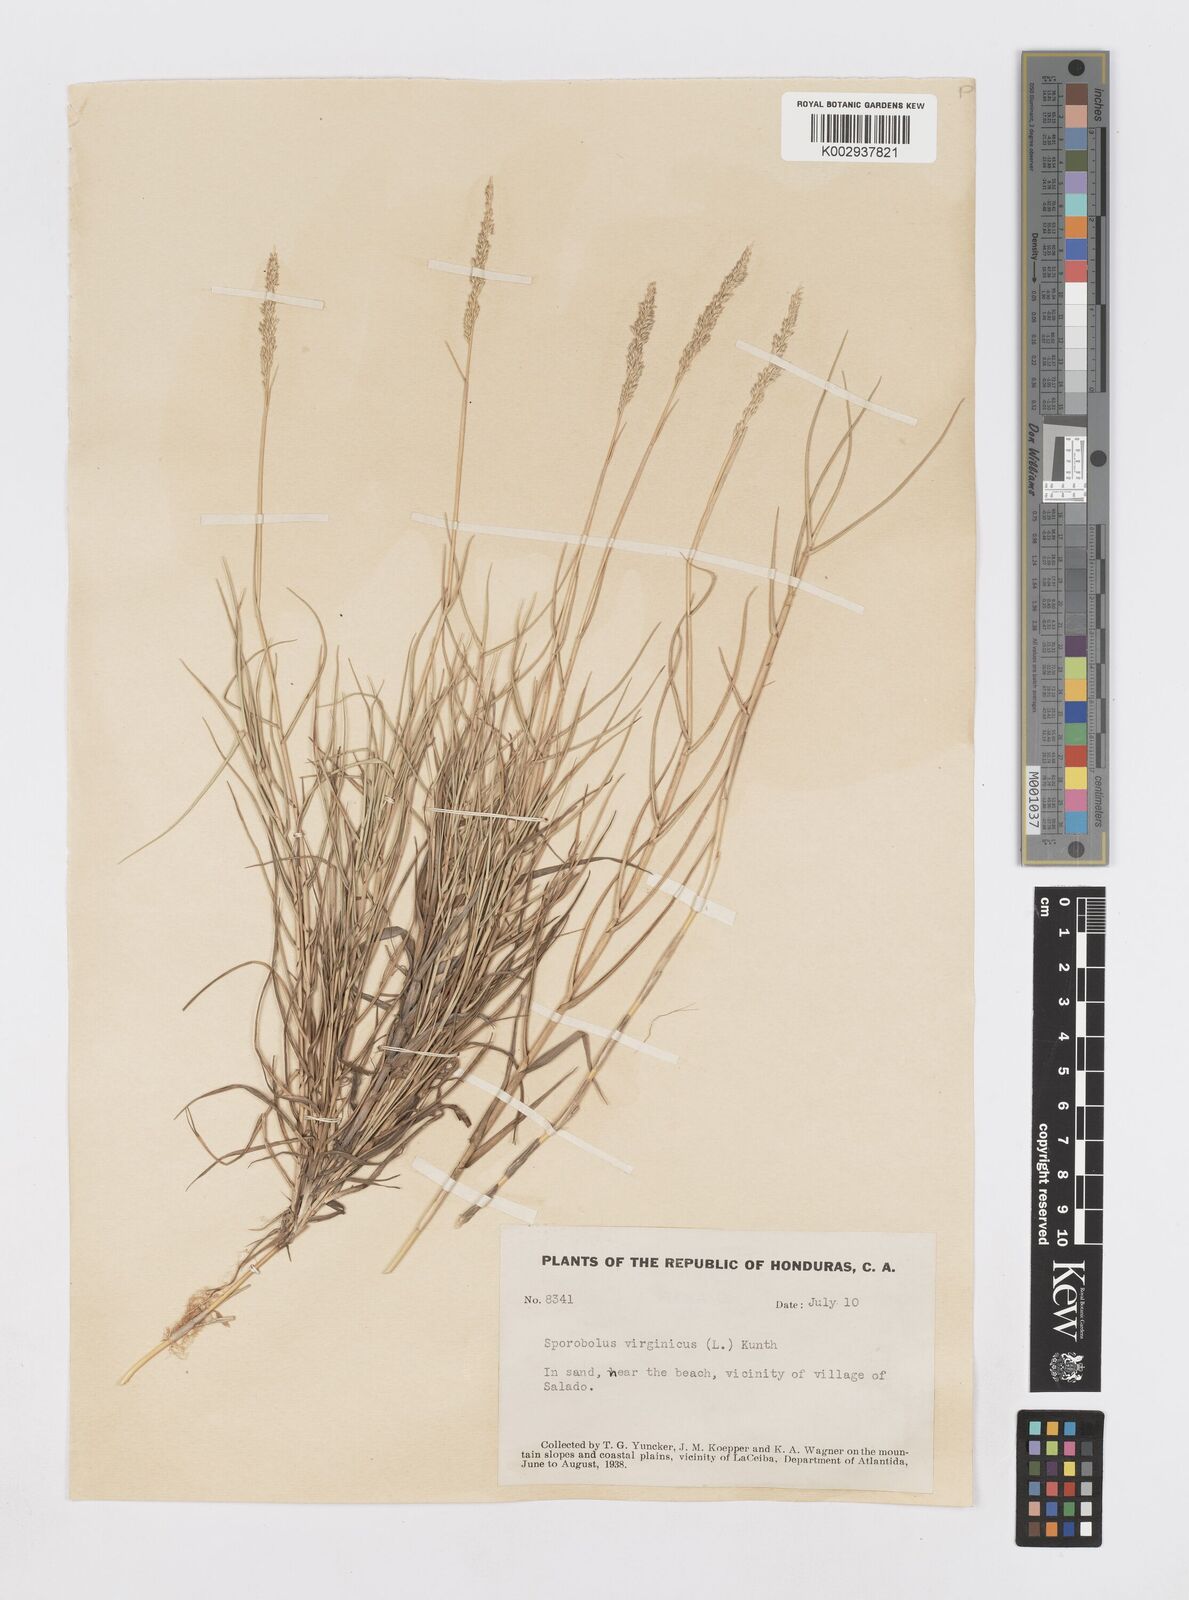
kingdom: Plantae
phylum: Tracheophyta
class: Liliopsida
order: Poales
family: Poaceae
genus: Sporobolus
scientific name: Sporobolus virginicus
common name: Beach dropseed
